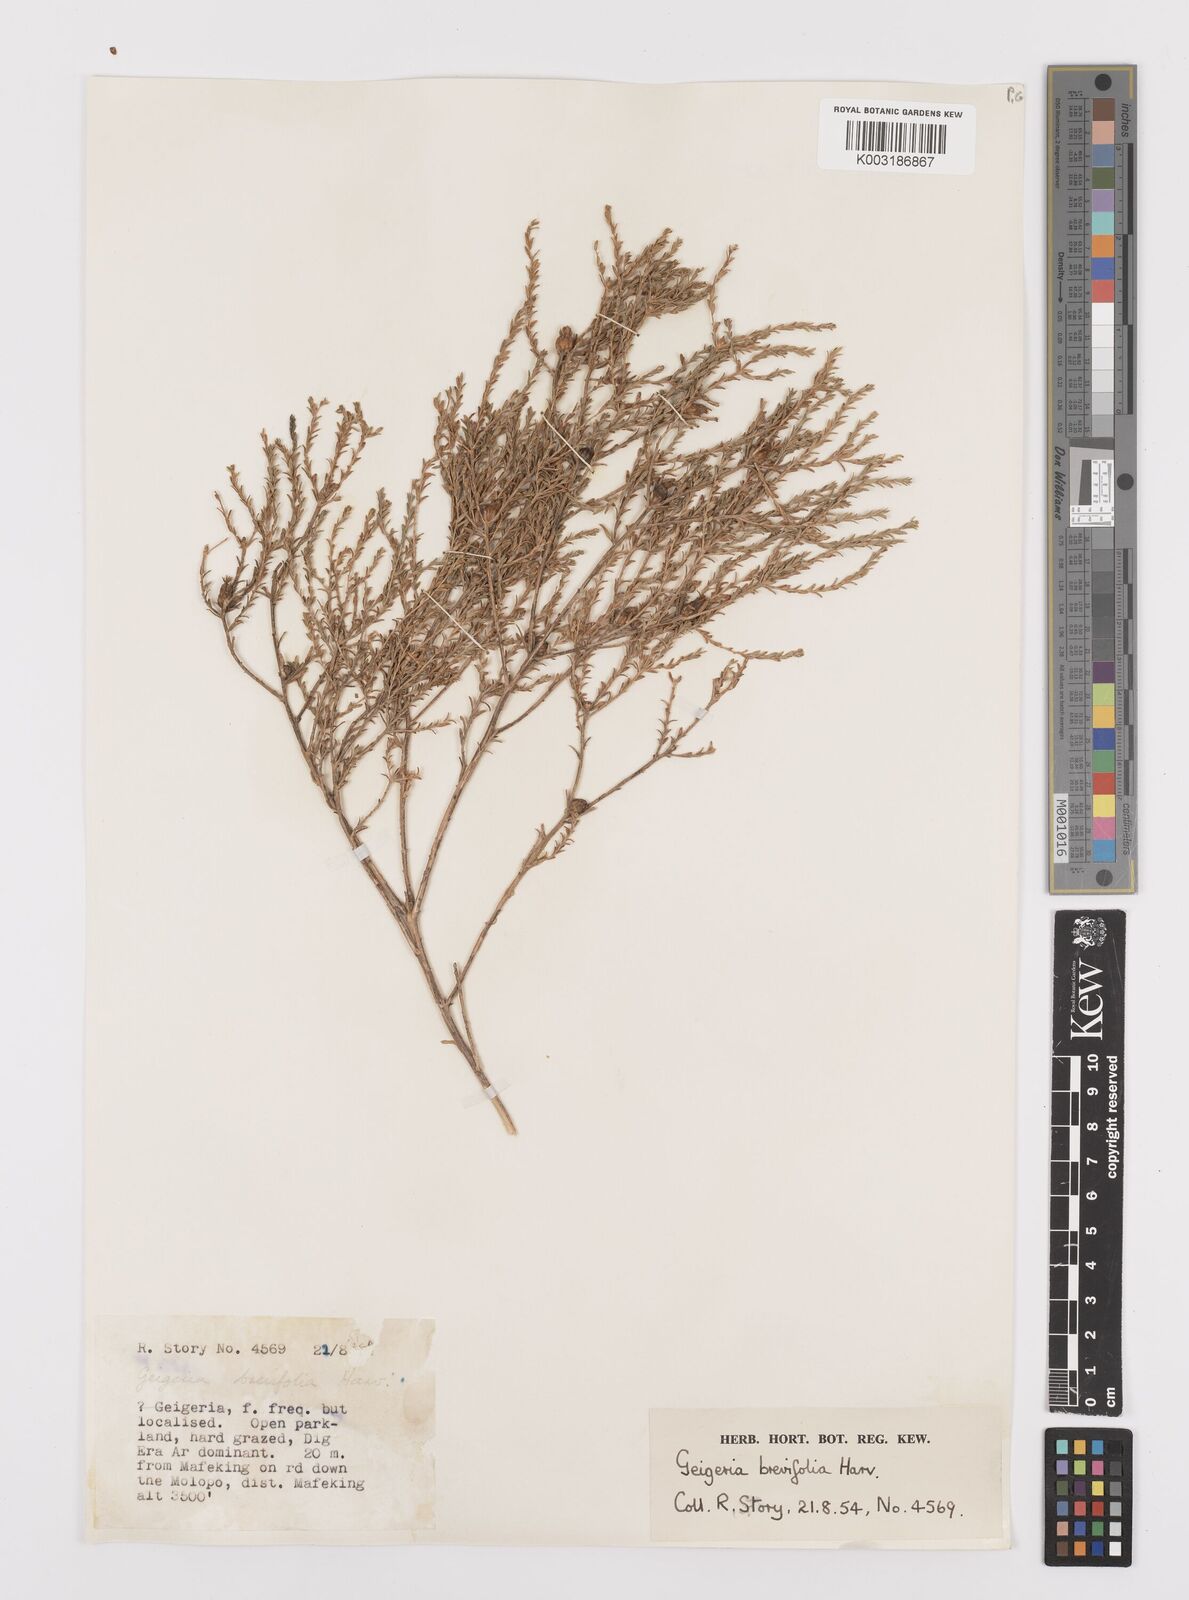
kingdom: Plantae
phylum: Tracheophyta
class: Magnoliopsida
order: Asterales
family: Asteraceae
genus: Geigeria
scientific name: Geigeria brevifolia
